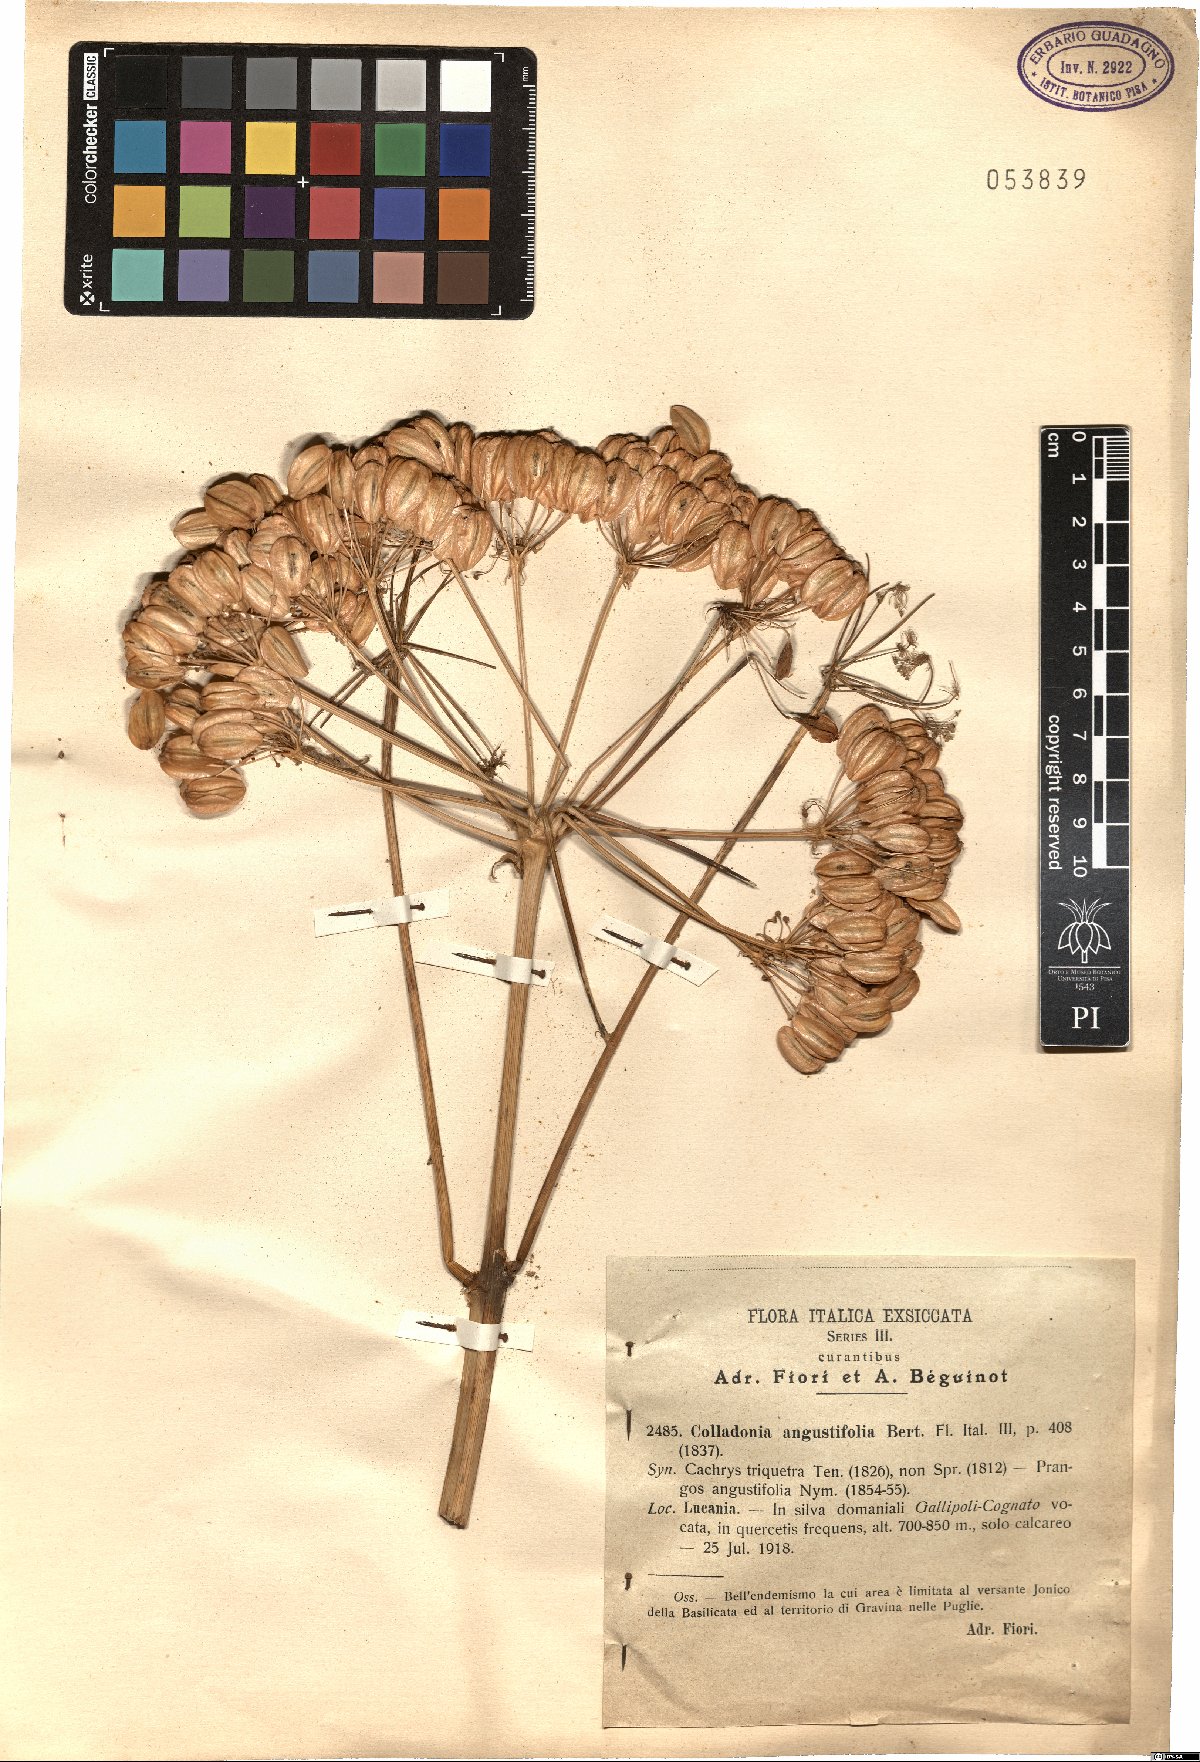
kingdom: Plantae
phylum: Tracheophyta
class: Magnoliopsida
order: Apiales
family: Apiaceae
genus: Heptaptera
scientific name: Heptaptera angustifolia
